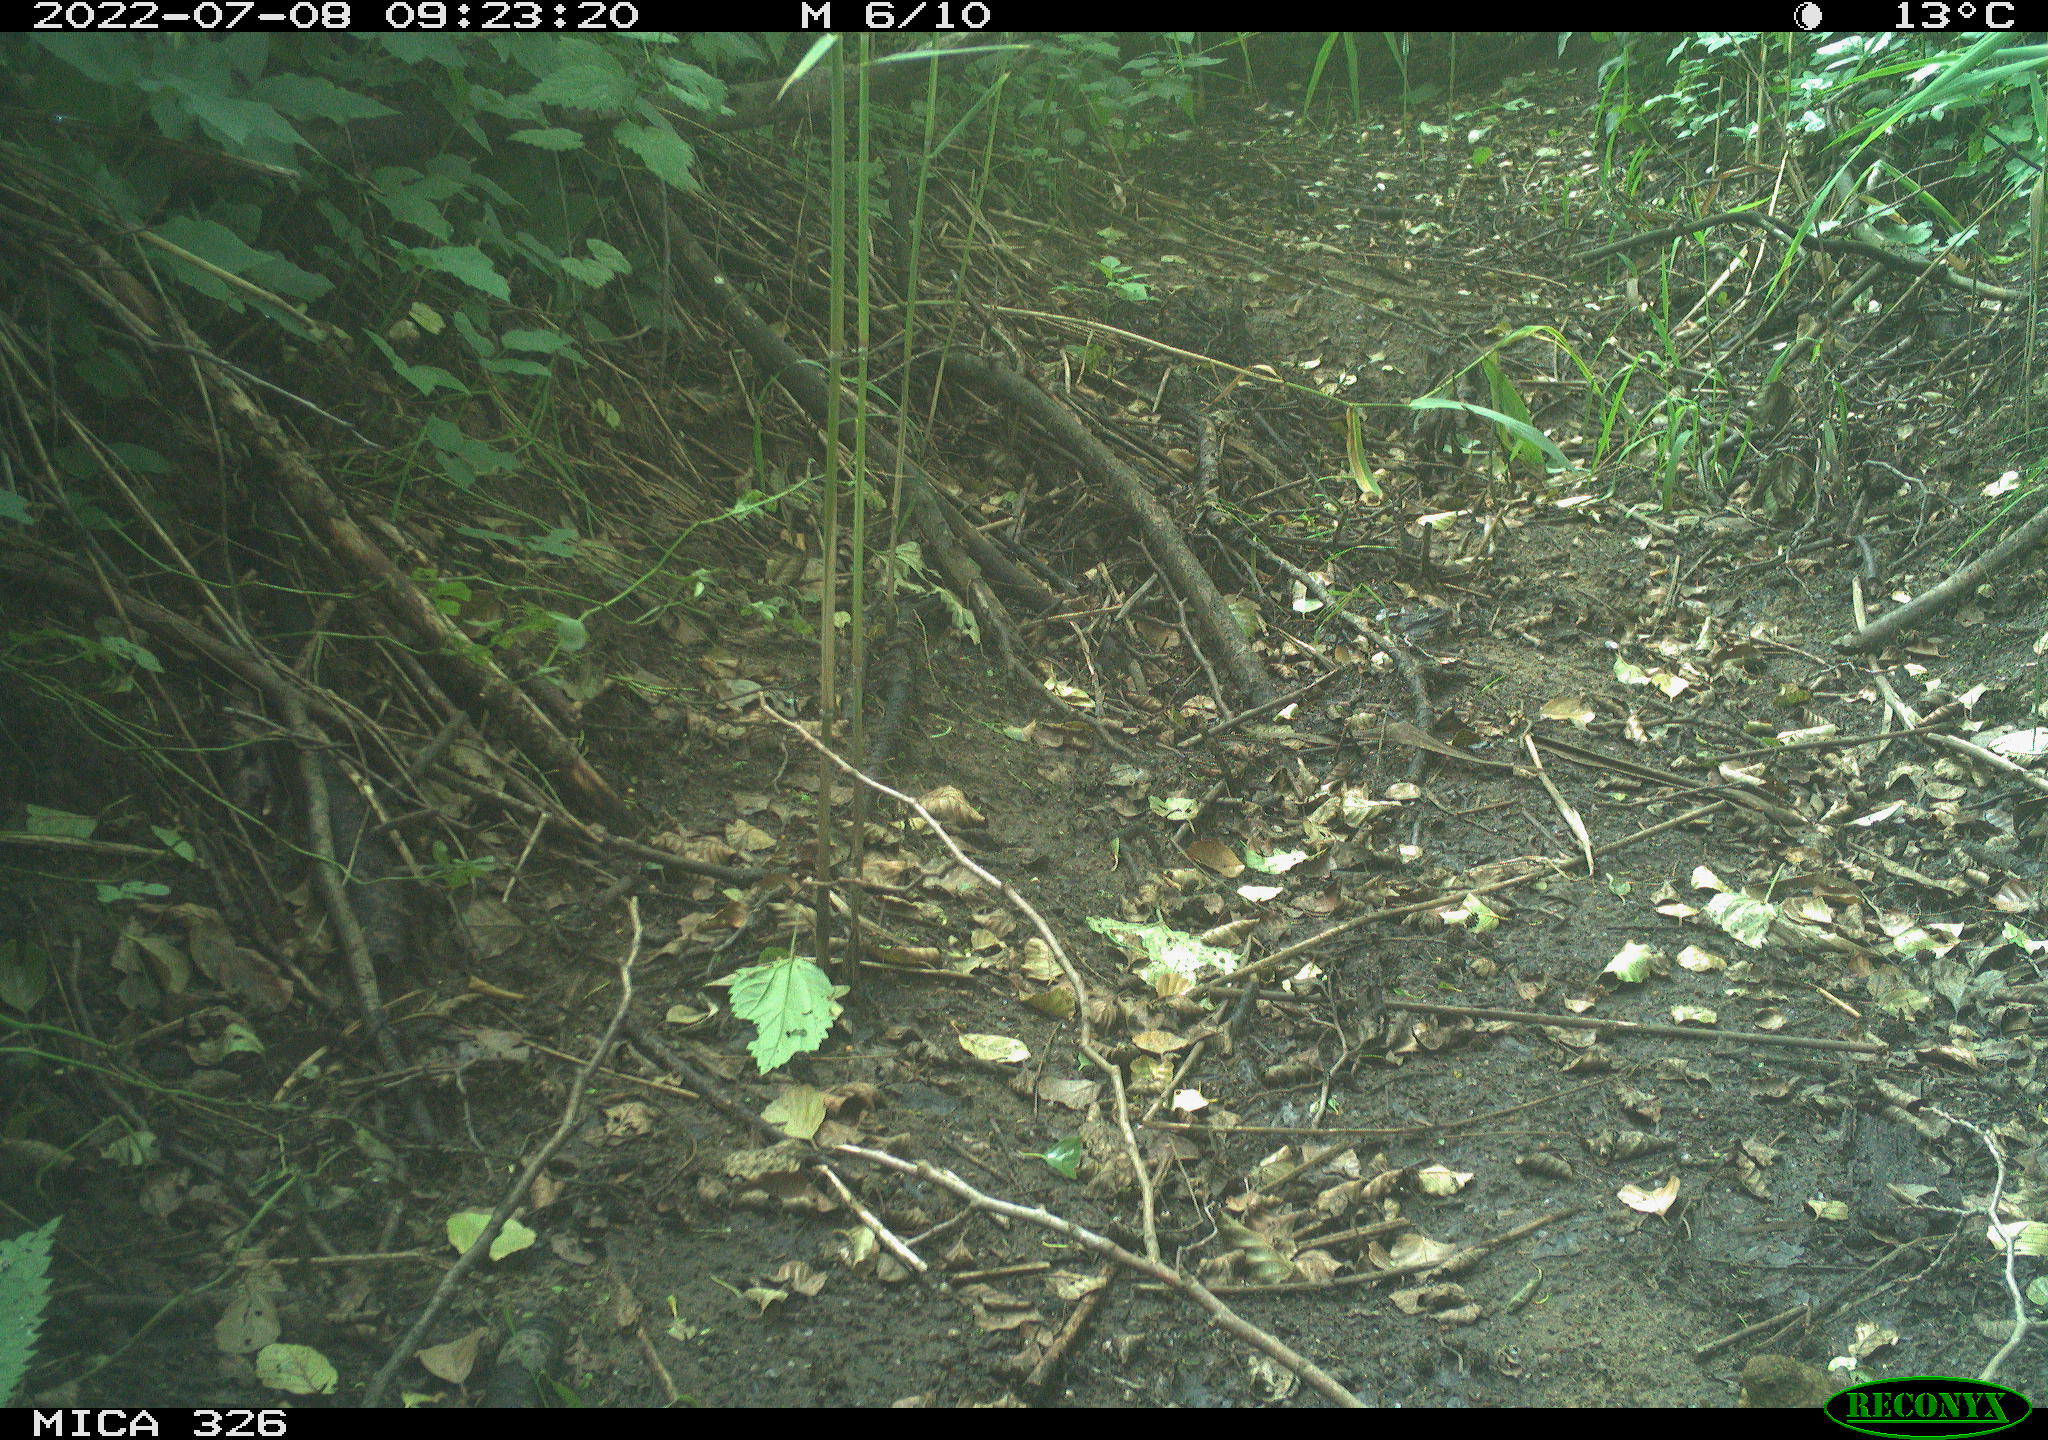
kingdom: Animalia
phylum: Chordata
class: Aves
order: Passeriformes
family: Turdidae
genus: Turdus
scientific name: Turdus philomelos
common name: Song thrush
